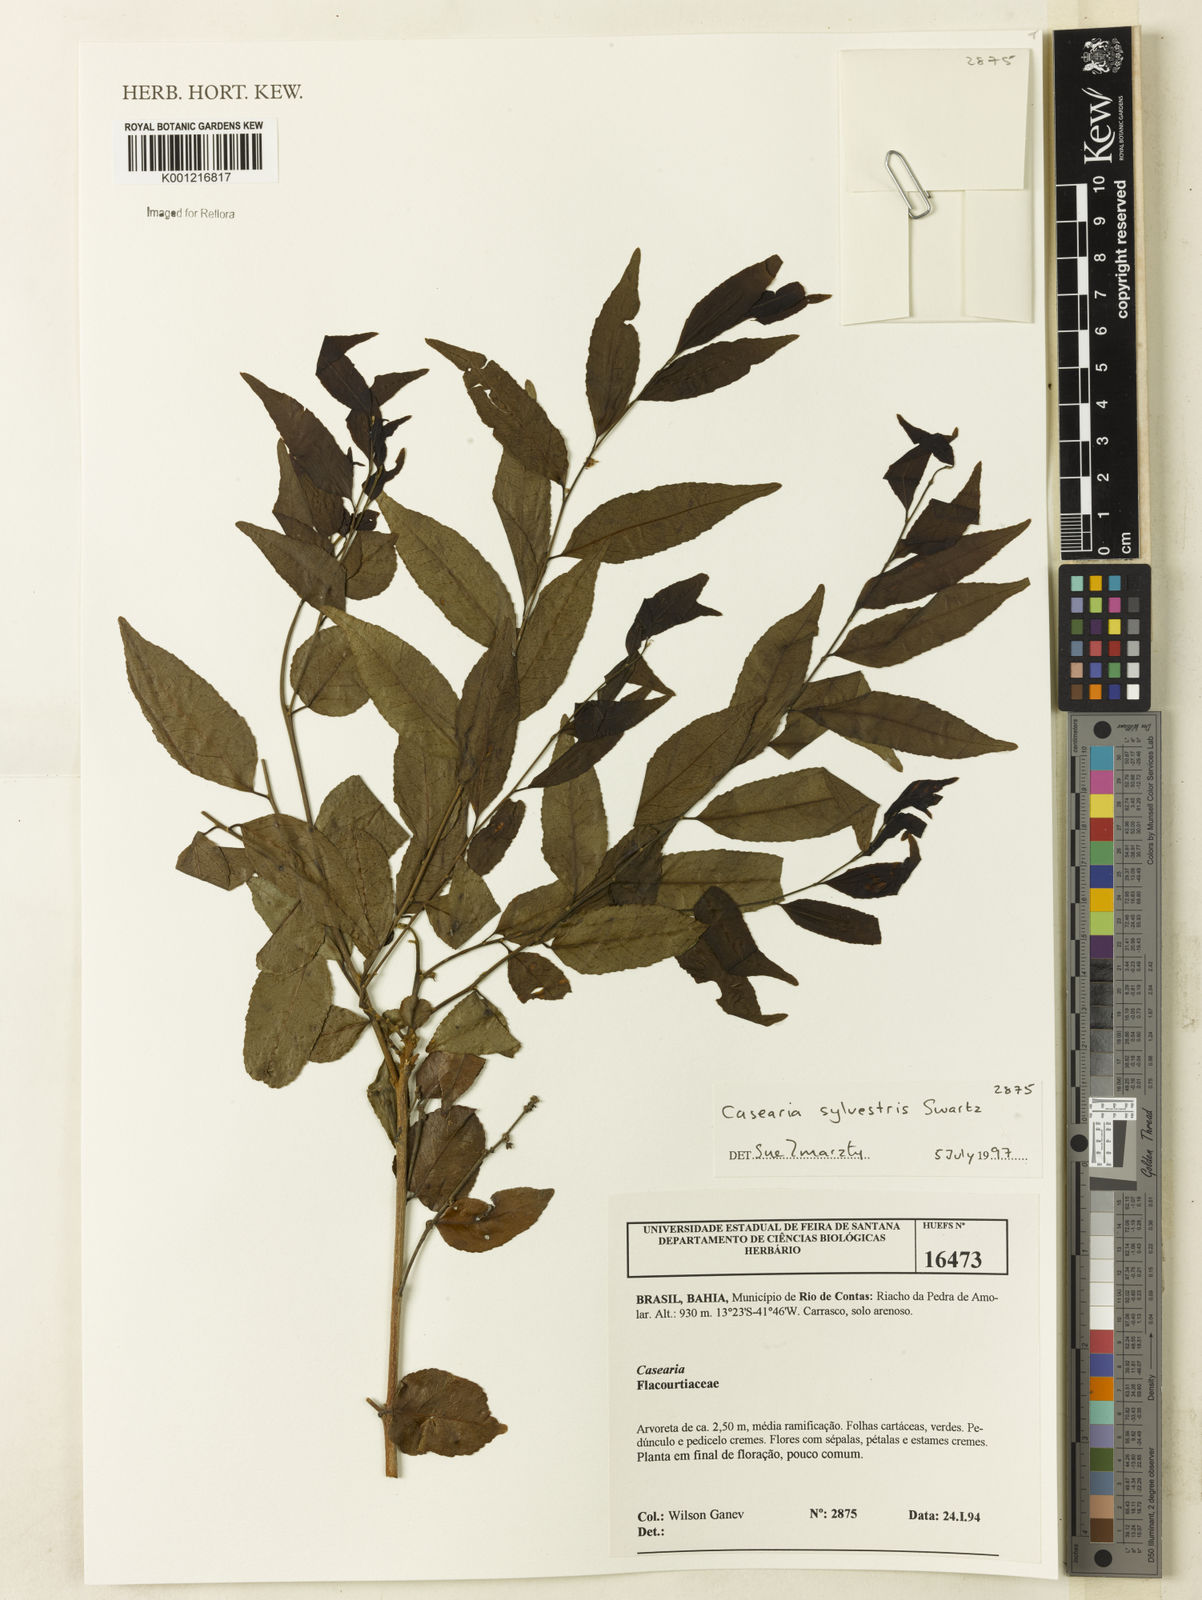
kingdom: Plantae
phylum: Tracheophyta
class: Magnoliopsida
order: Malpighiales
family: Salicaceae
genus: Casearia
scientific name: Casearia sylvestris
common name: Wild sage
